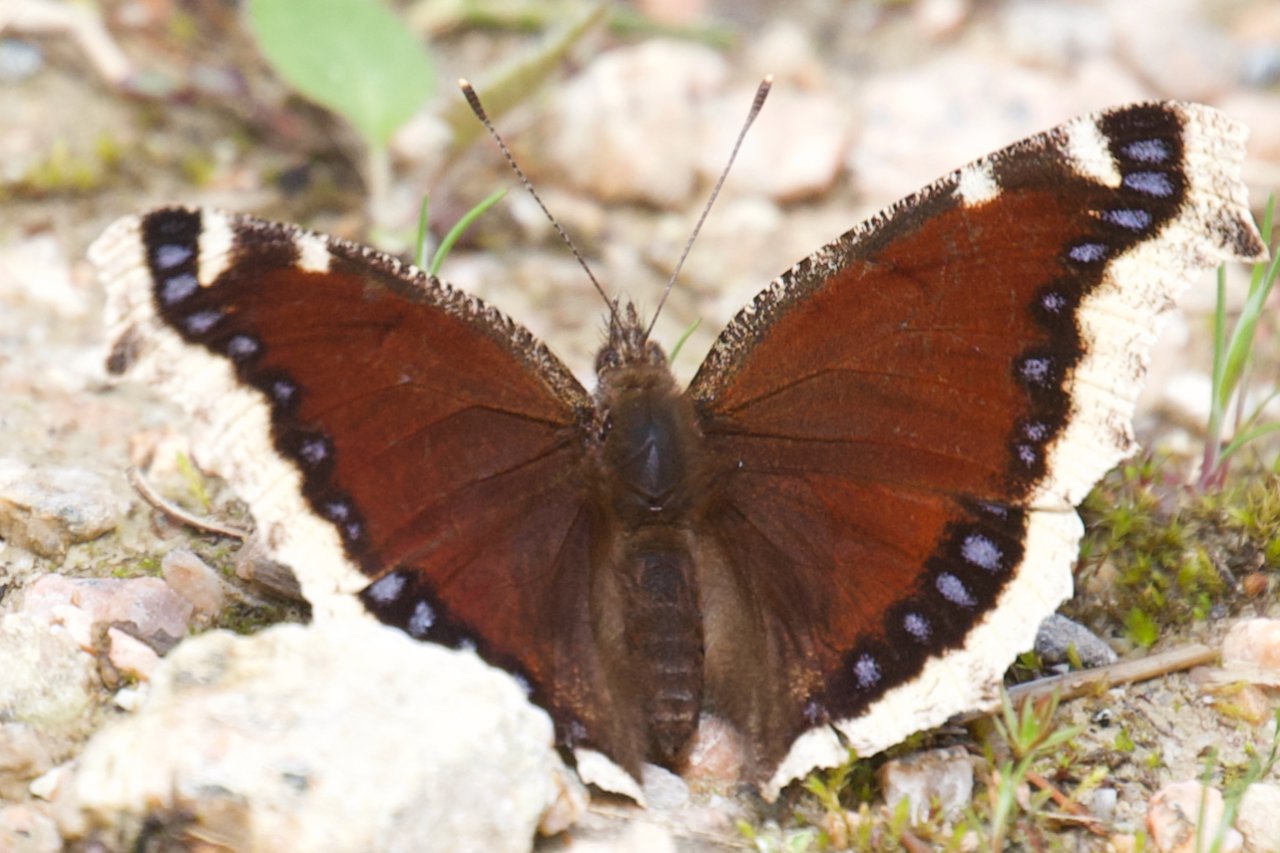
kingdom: Animalia
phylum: Arthropoda
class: Insecta
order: Lepidoptera
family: Nymphalidae
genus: Nymphalis
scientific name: Nymphalis antiopa
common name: Mourning Cloak
